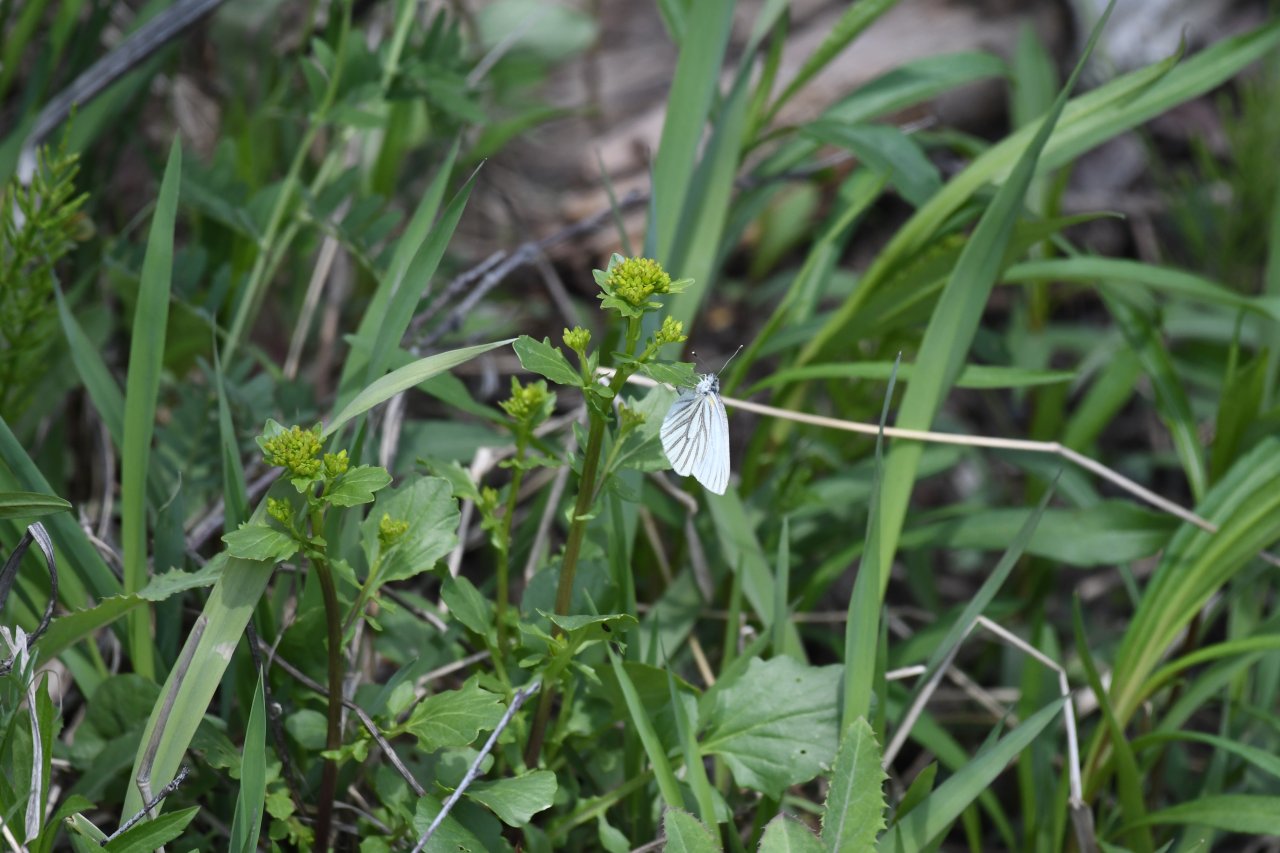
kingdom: Animalia
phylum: Arthropoda
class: Insecta
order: Lepidoptera
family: Pieridae
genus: Pieris
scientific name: Pieris oleracea
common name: Mustard White
